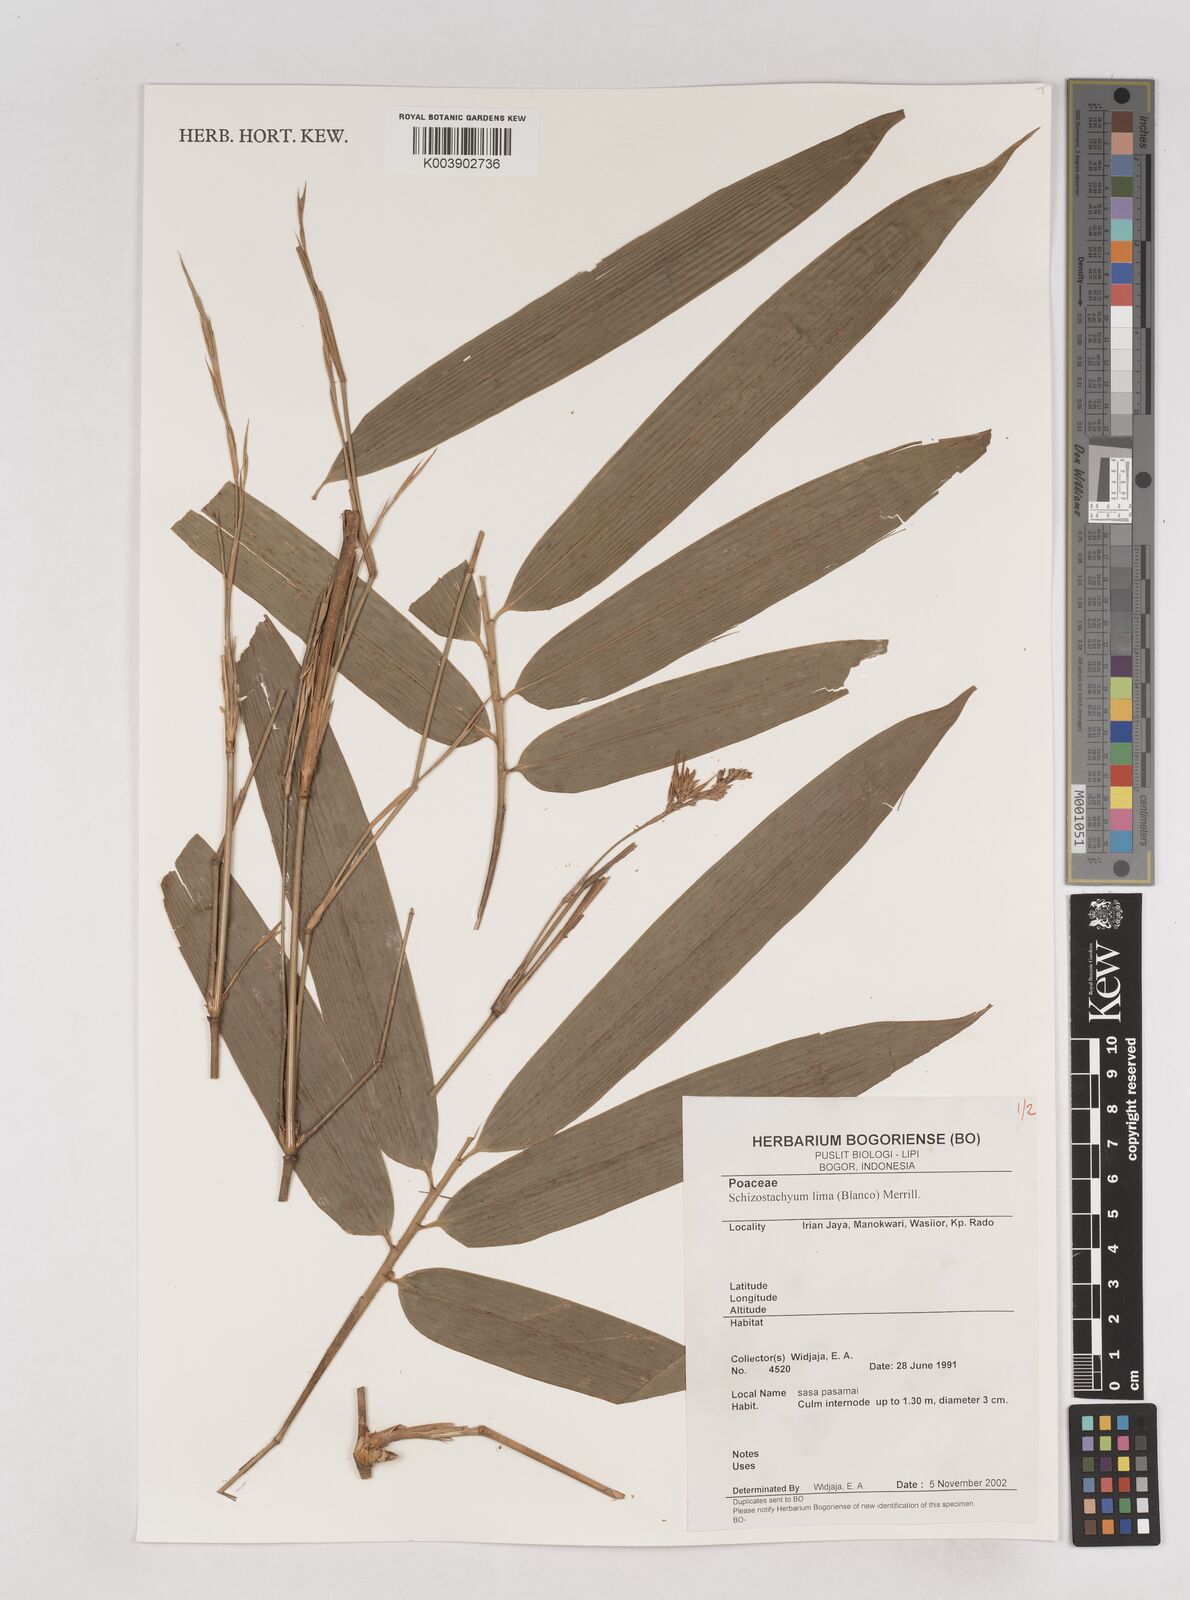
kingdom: Plantae
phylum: Tracheophyta
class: Liliopsida
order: Poales
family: Poaceae
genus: Schizostachyum
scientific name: Schizostachyum
